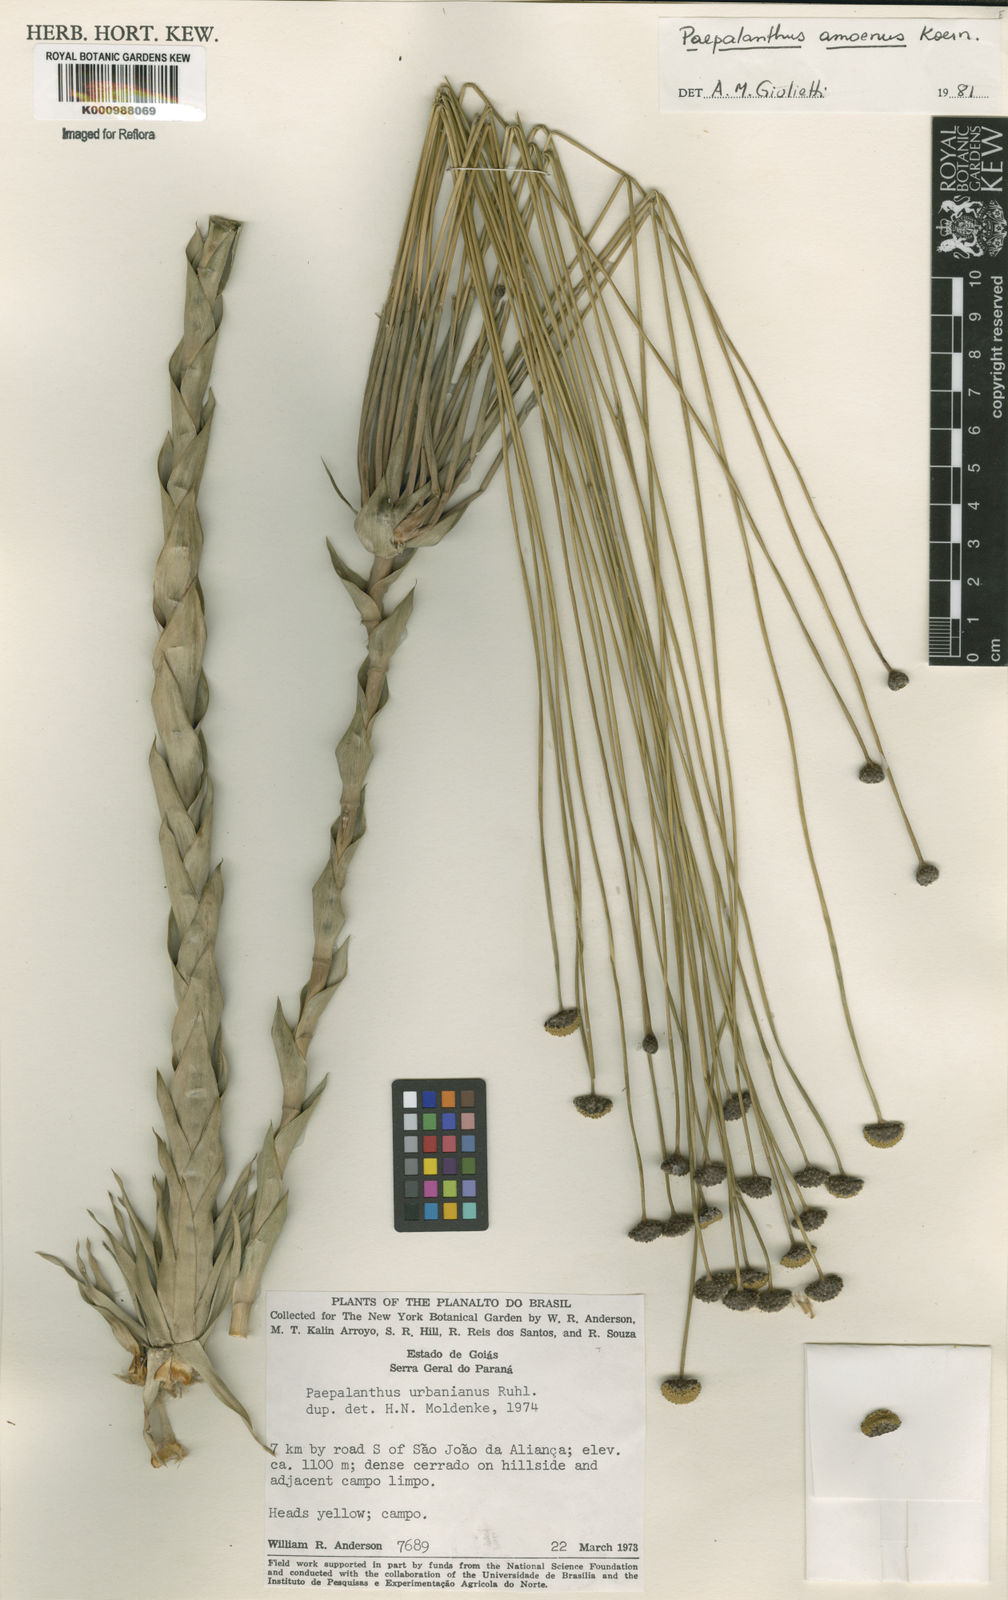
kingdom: Plantae
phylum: Tracheophyta
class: Liliopsida
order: Poales
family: Eriocaulaceae
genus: Paepalanthus
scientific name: Paepalanthus
